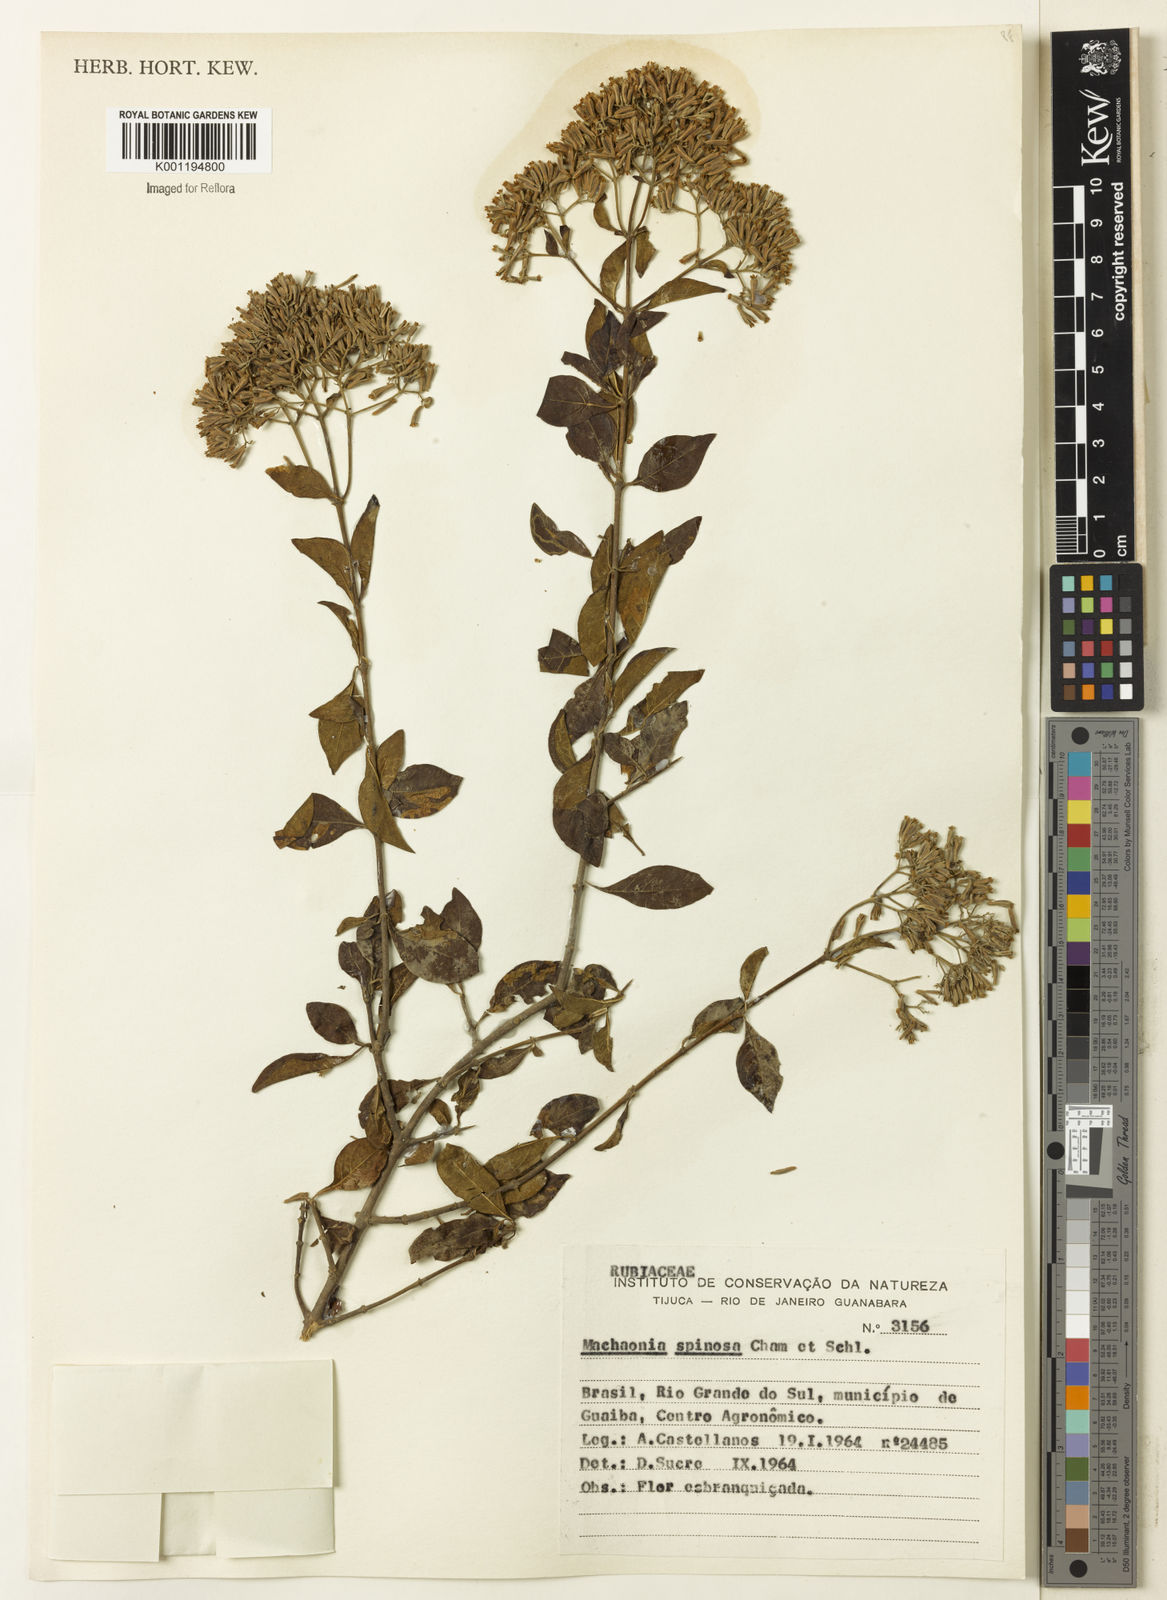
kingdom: Plantae
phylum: Tracheophyta
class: Magnoliopsida
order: Gentianales
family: Rubiaceae
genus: Machaonia
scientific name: Machaonia brasiliensis
